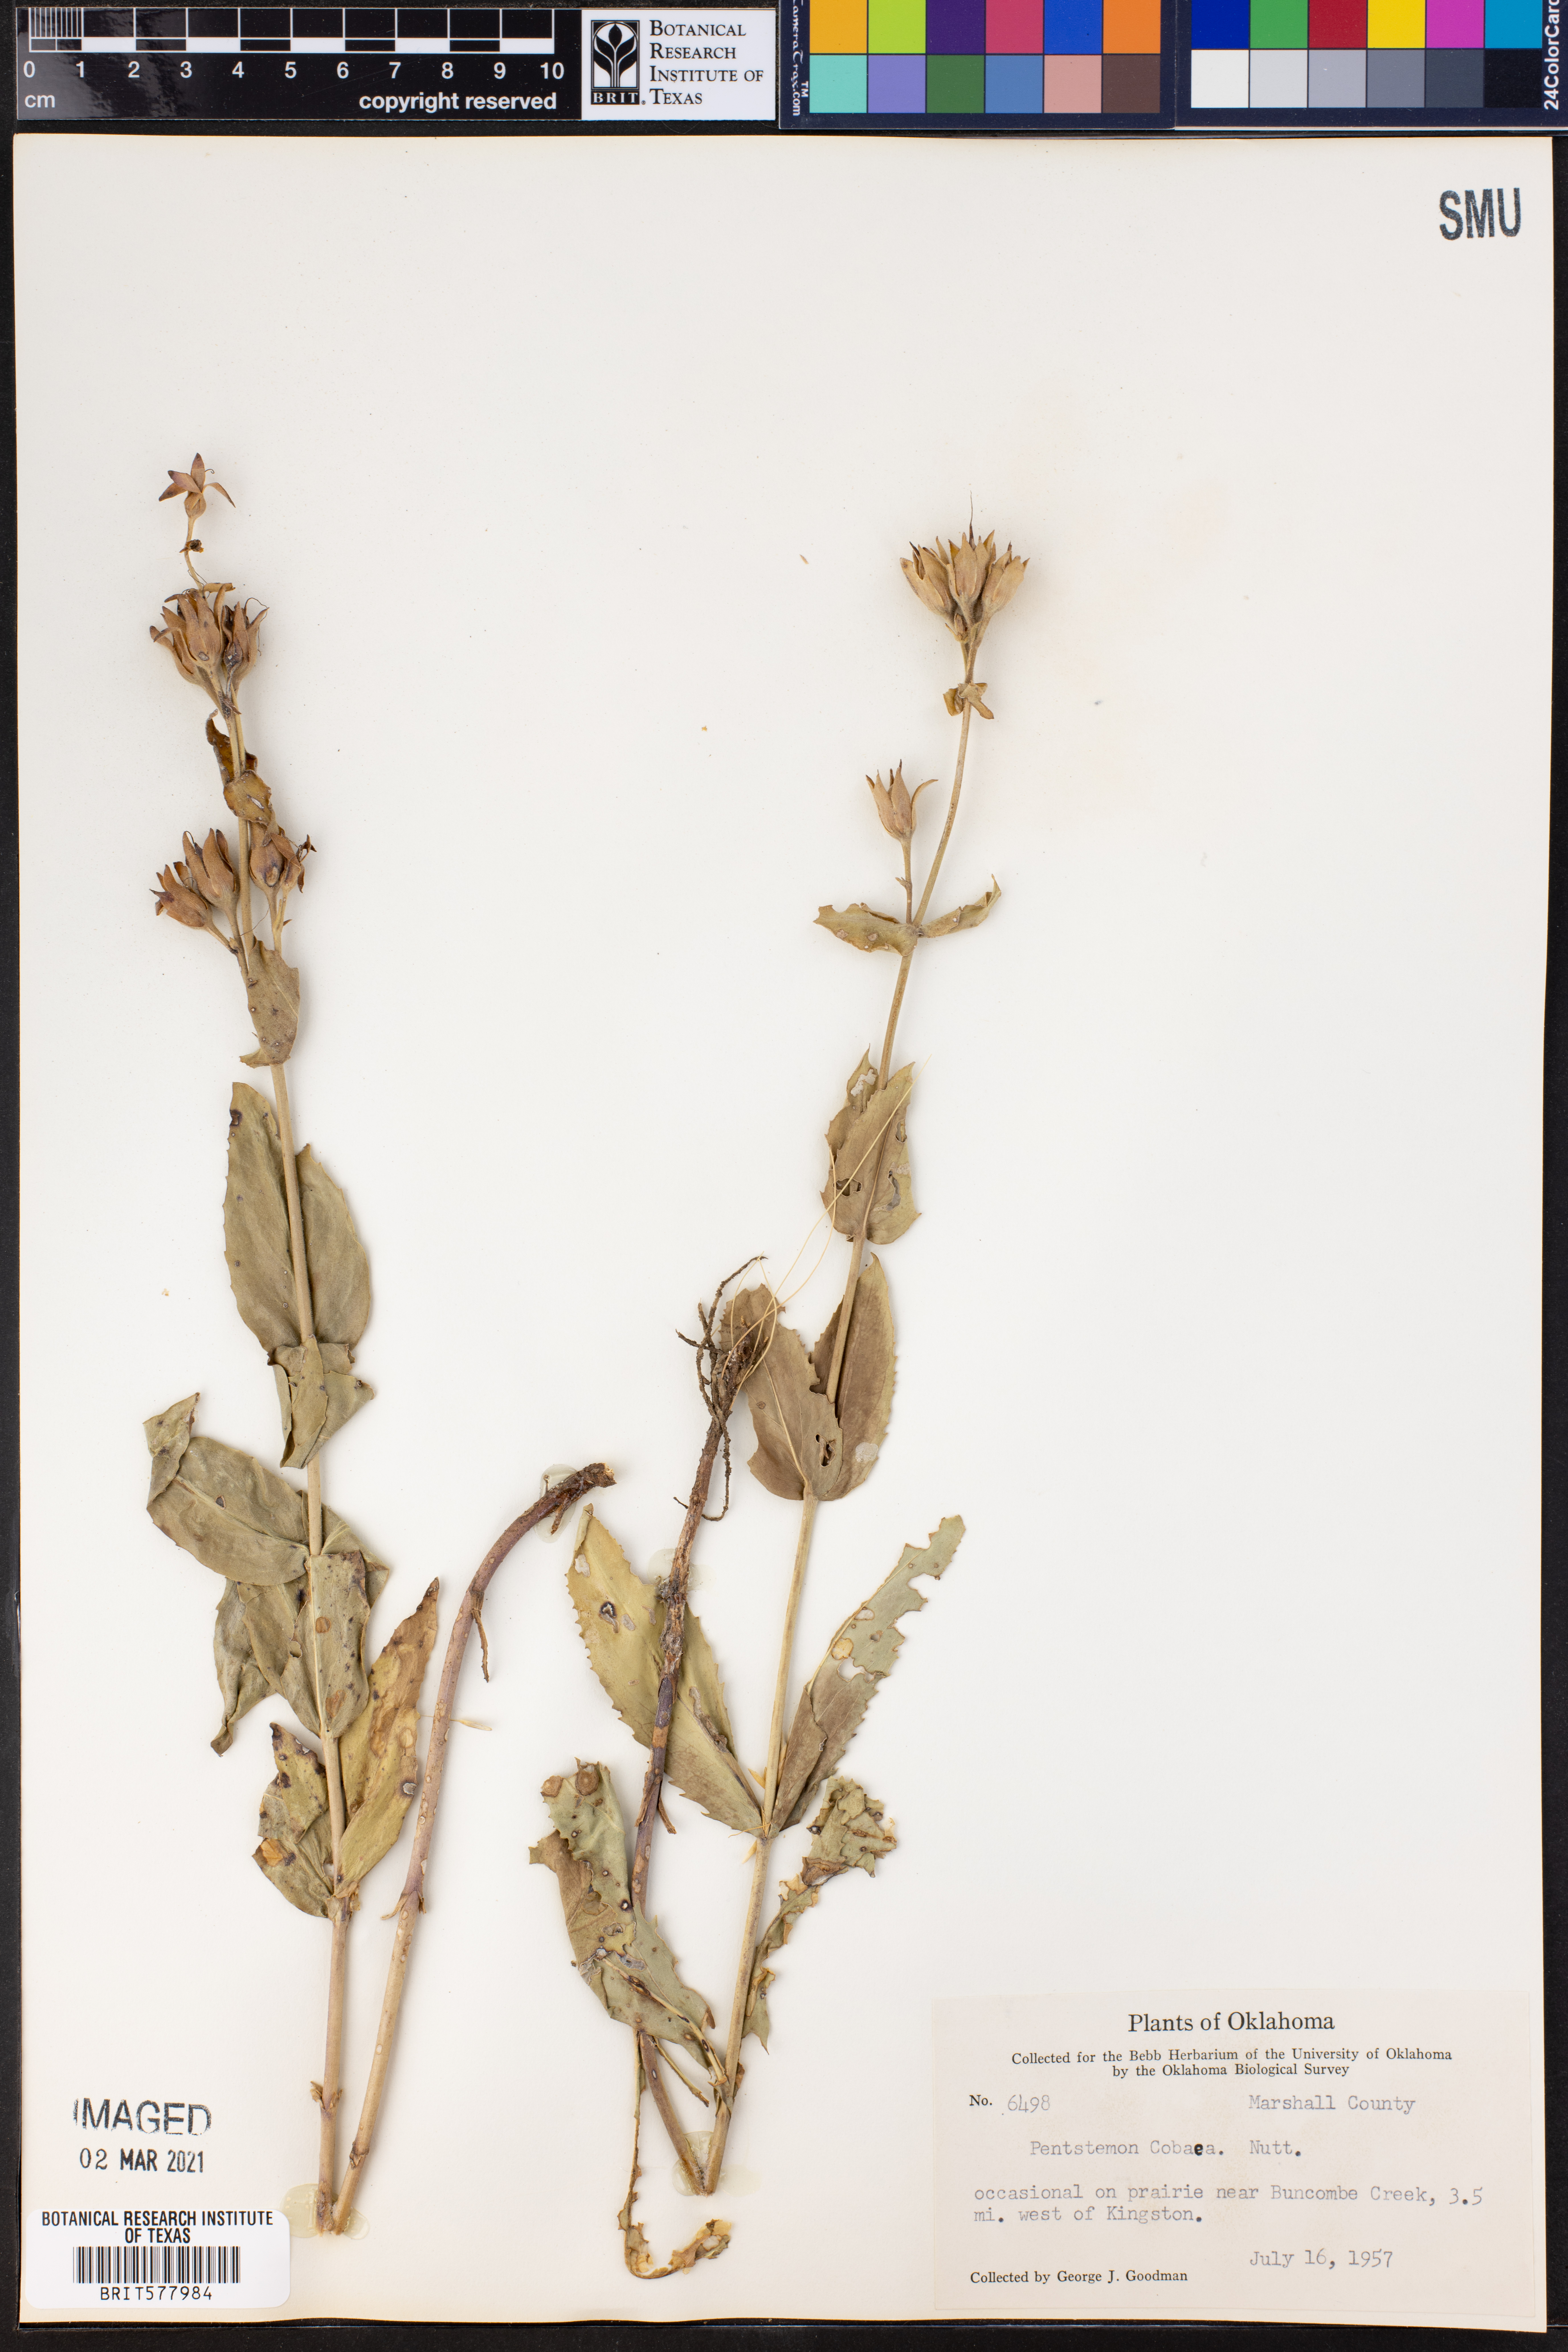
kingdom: Plantae
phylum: Tracheophyta
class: Magnoliopsida
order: Lamiales
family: Plantaginaceae
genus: Penstemon
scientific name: Penstemon cobaea
